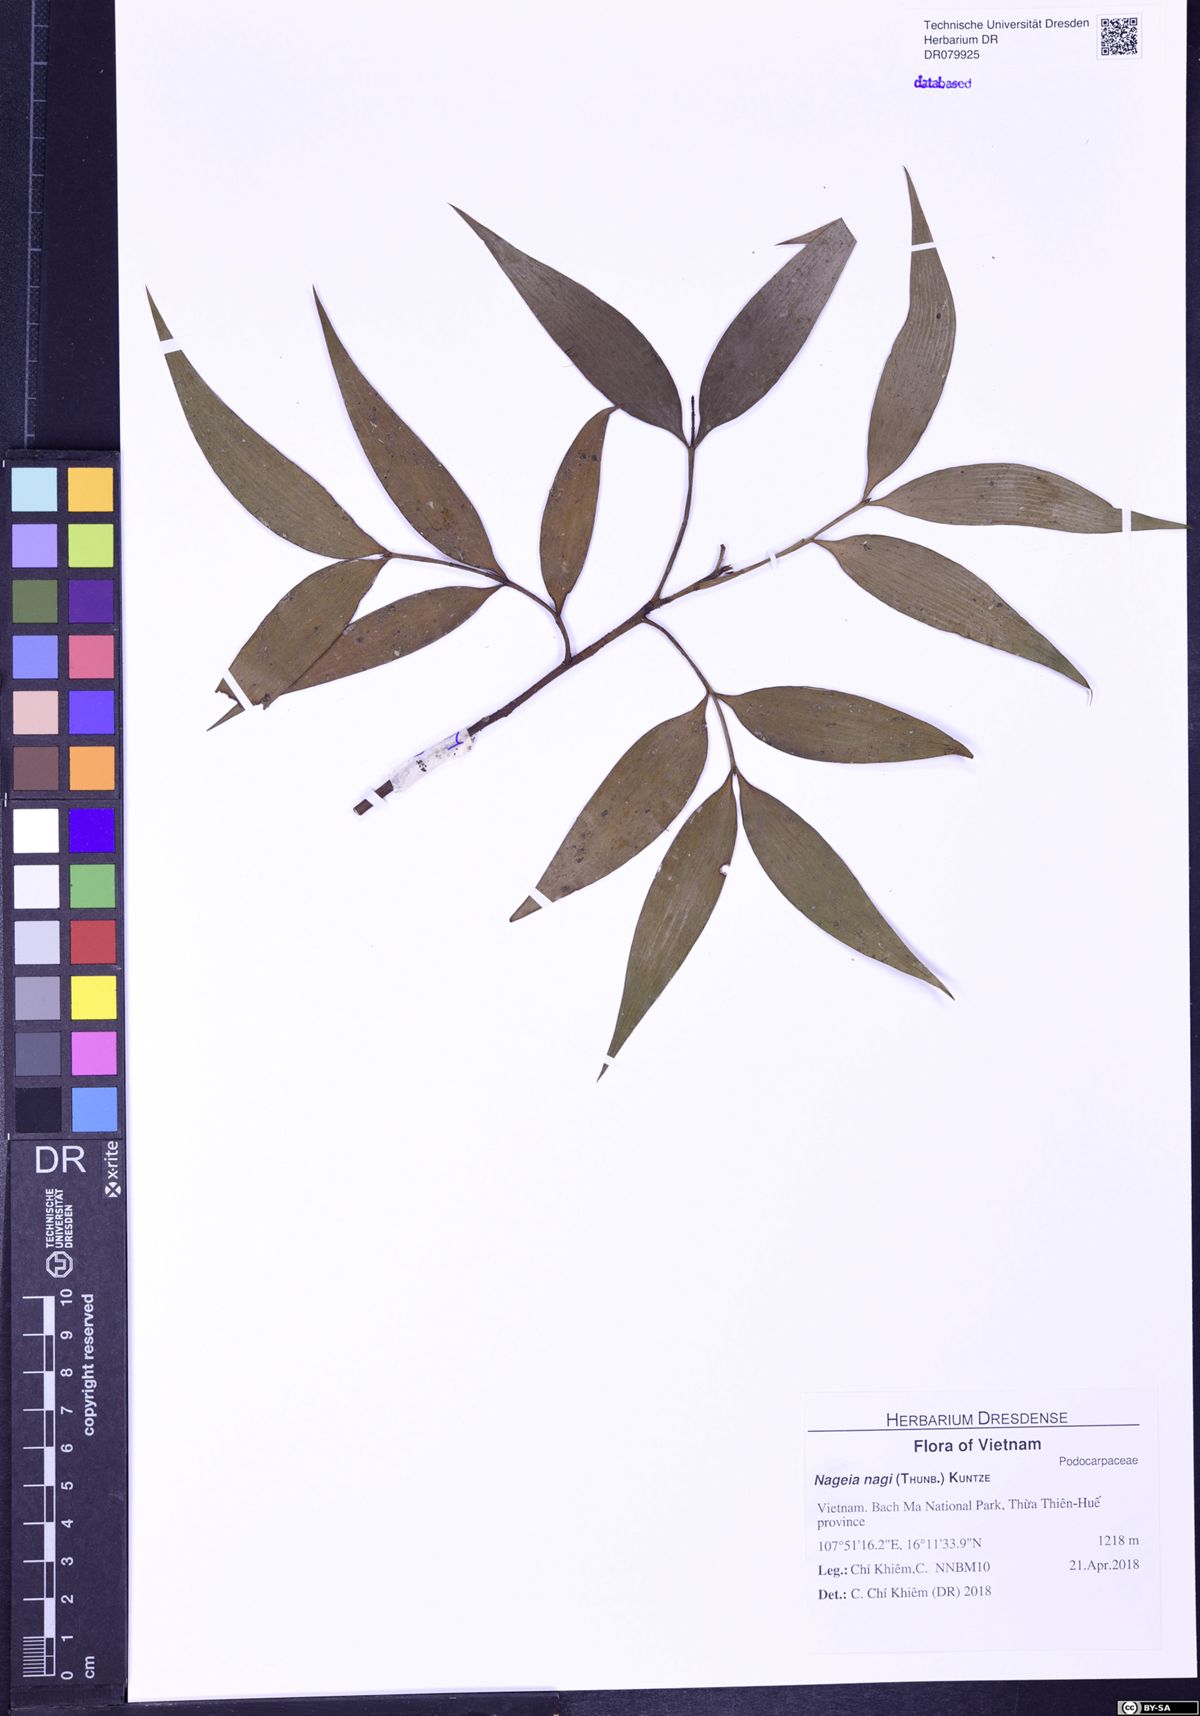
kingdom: Plantae
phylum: Tracheophyta
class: Pinopsida
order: Pinales
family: Podocarpaceae
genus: Nageia
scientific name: Nageia nagi
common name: Kaphal
